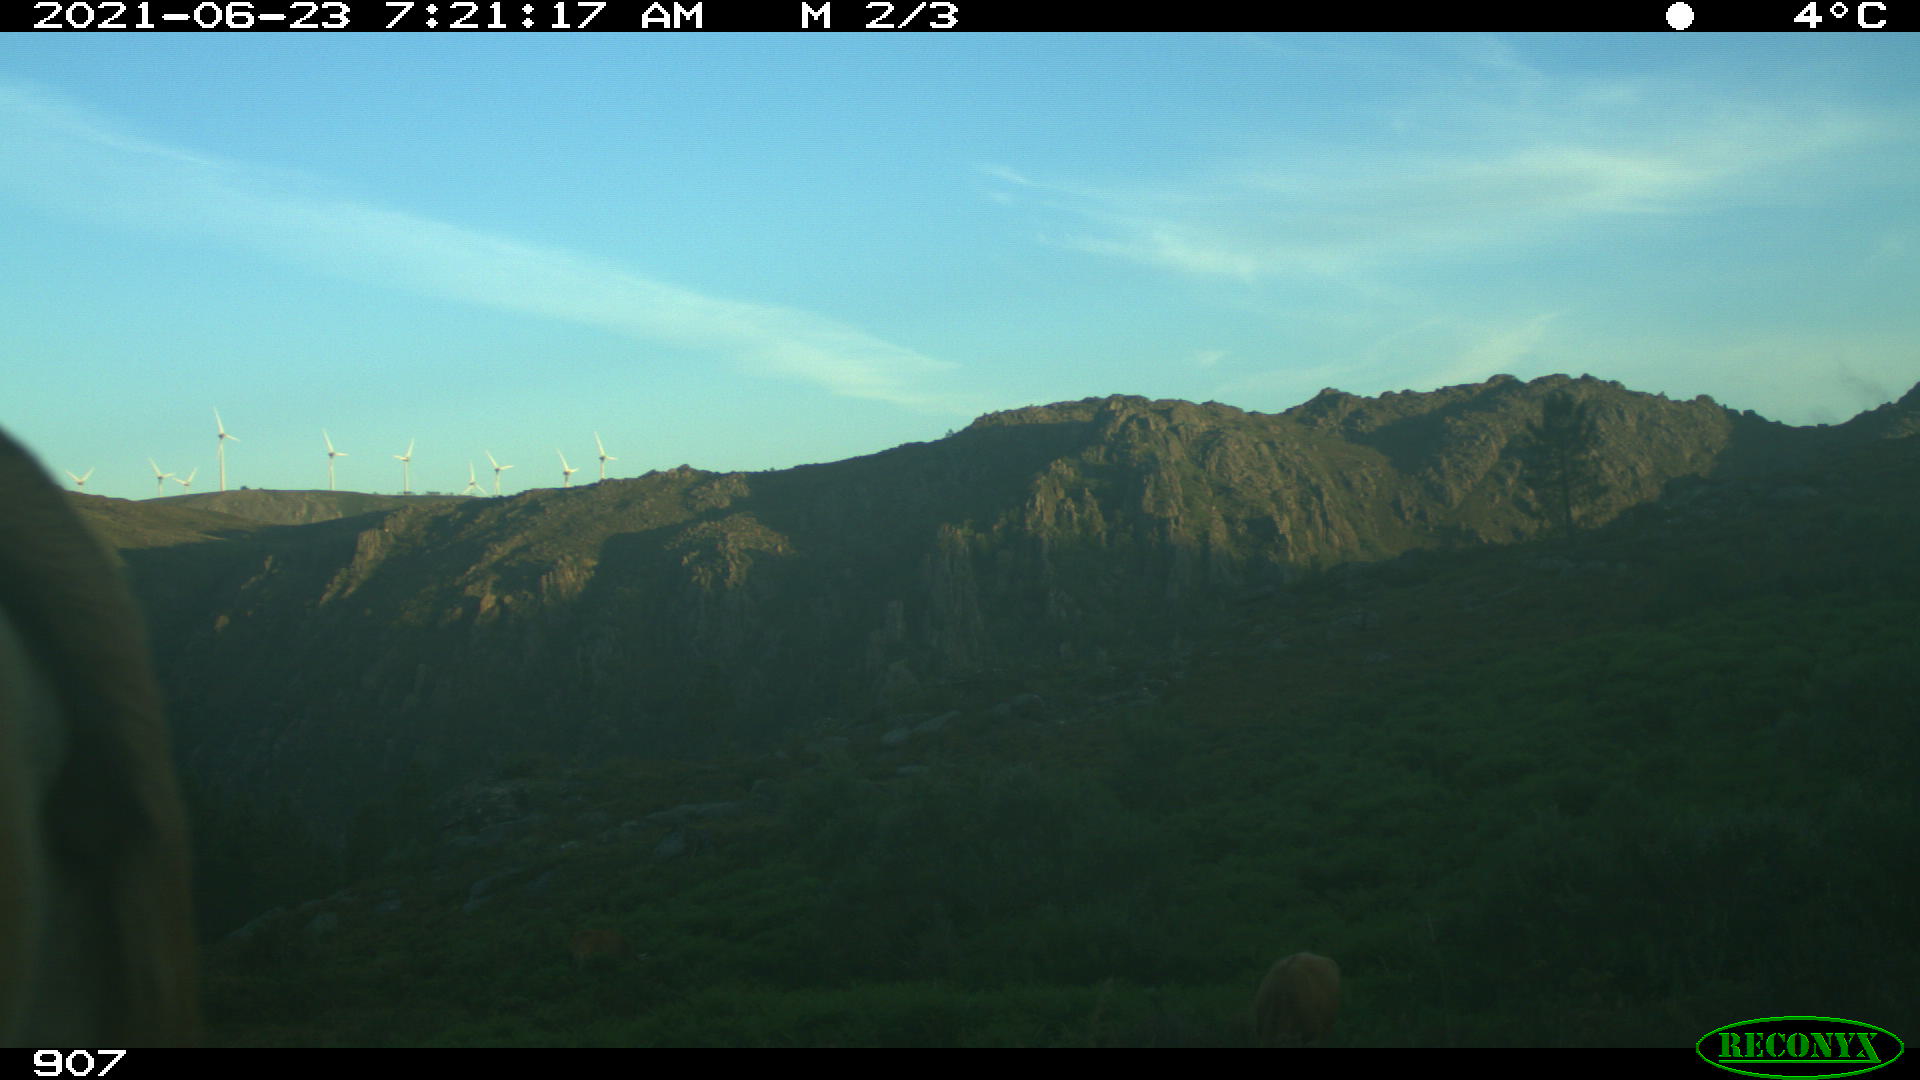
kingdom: Animalia
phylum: Chordata
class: Mammalia
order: Artiodactyla
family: Bovidae
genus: Bos
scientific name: Bos taurus
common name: Domesticated cattle
